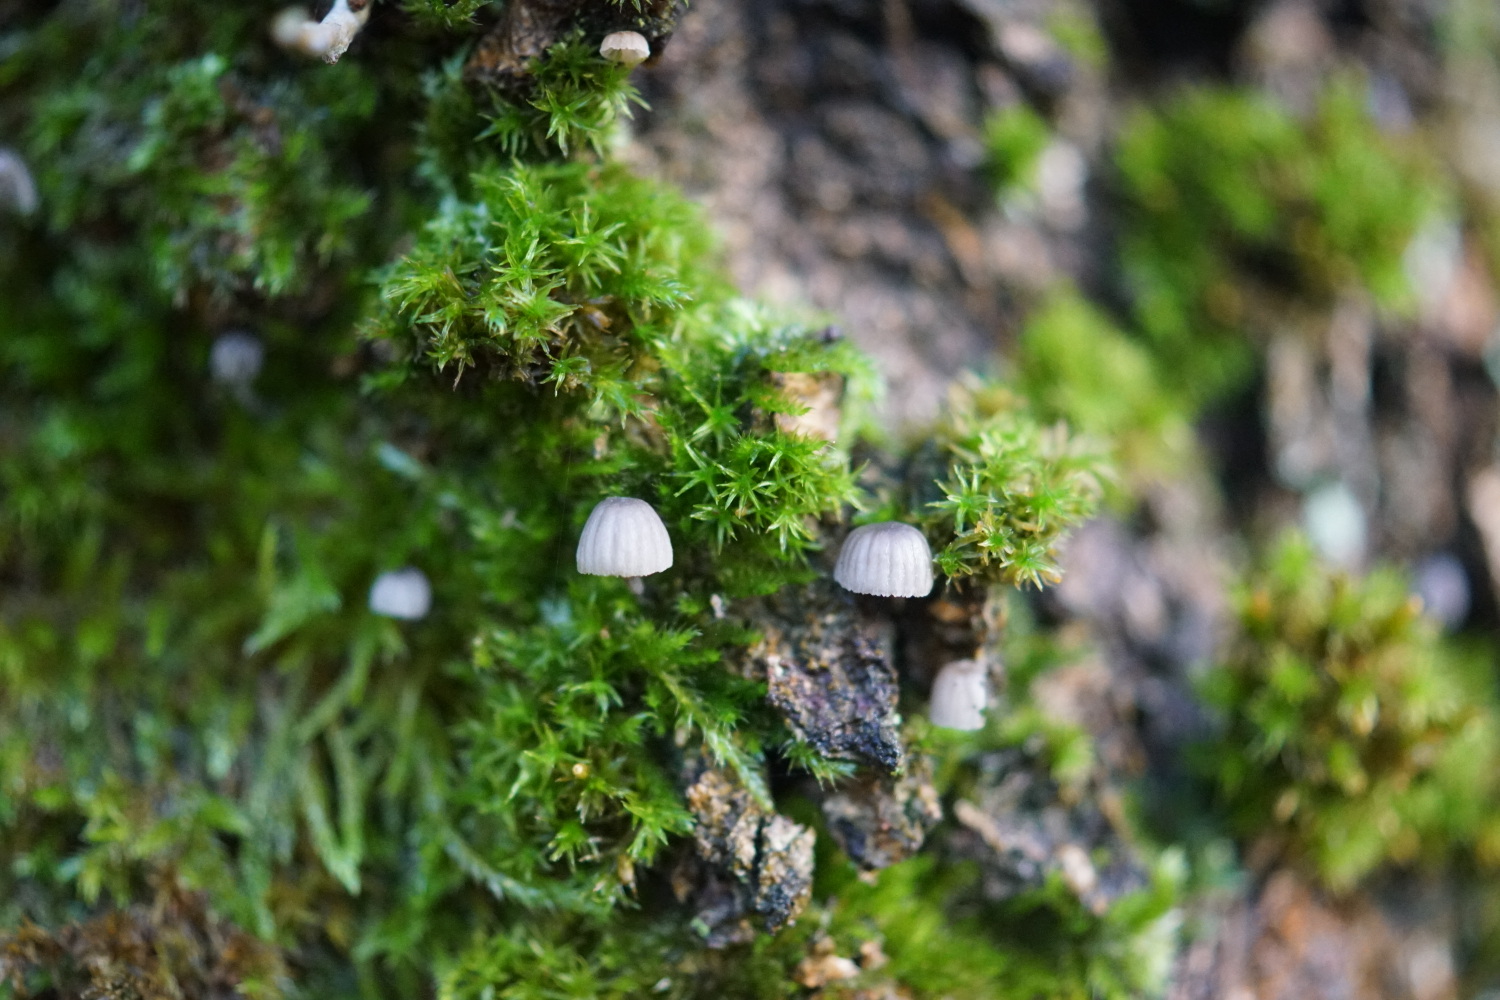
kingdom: Fungi
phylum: Basidiomycota
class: Agaricomycetes
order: Agaricales
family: Mycenaceae
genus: Mycena
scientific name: Mycena pseudocorticola
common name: gråblå bark-huesvamp
